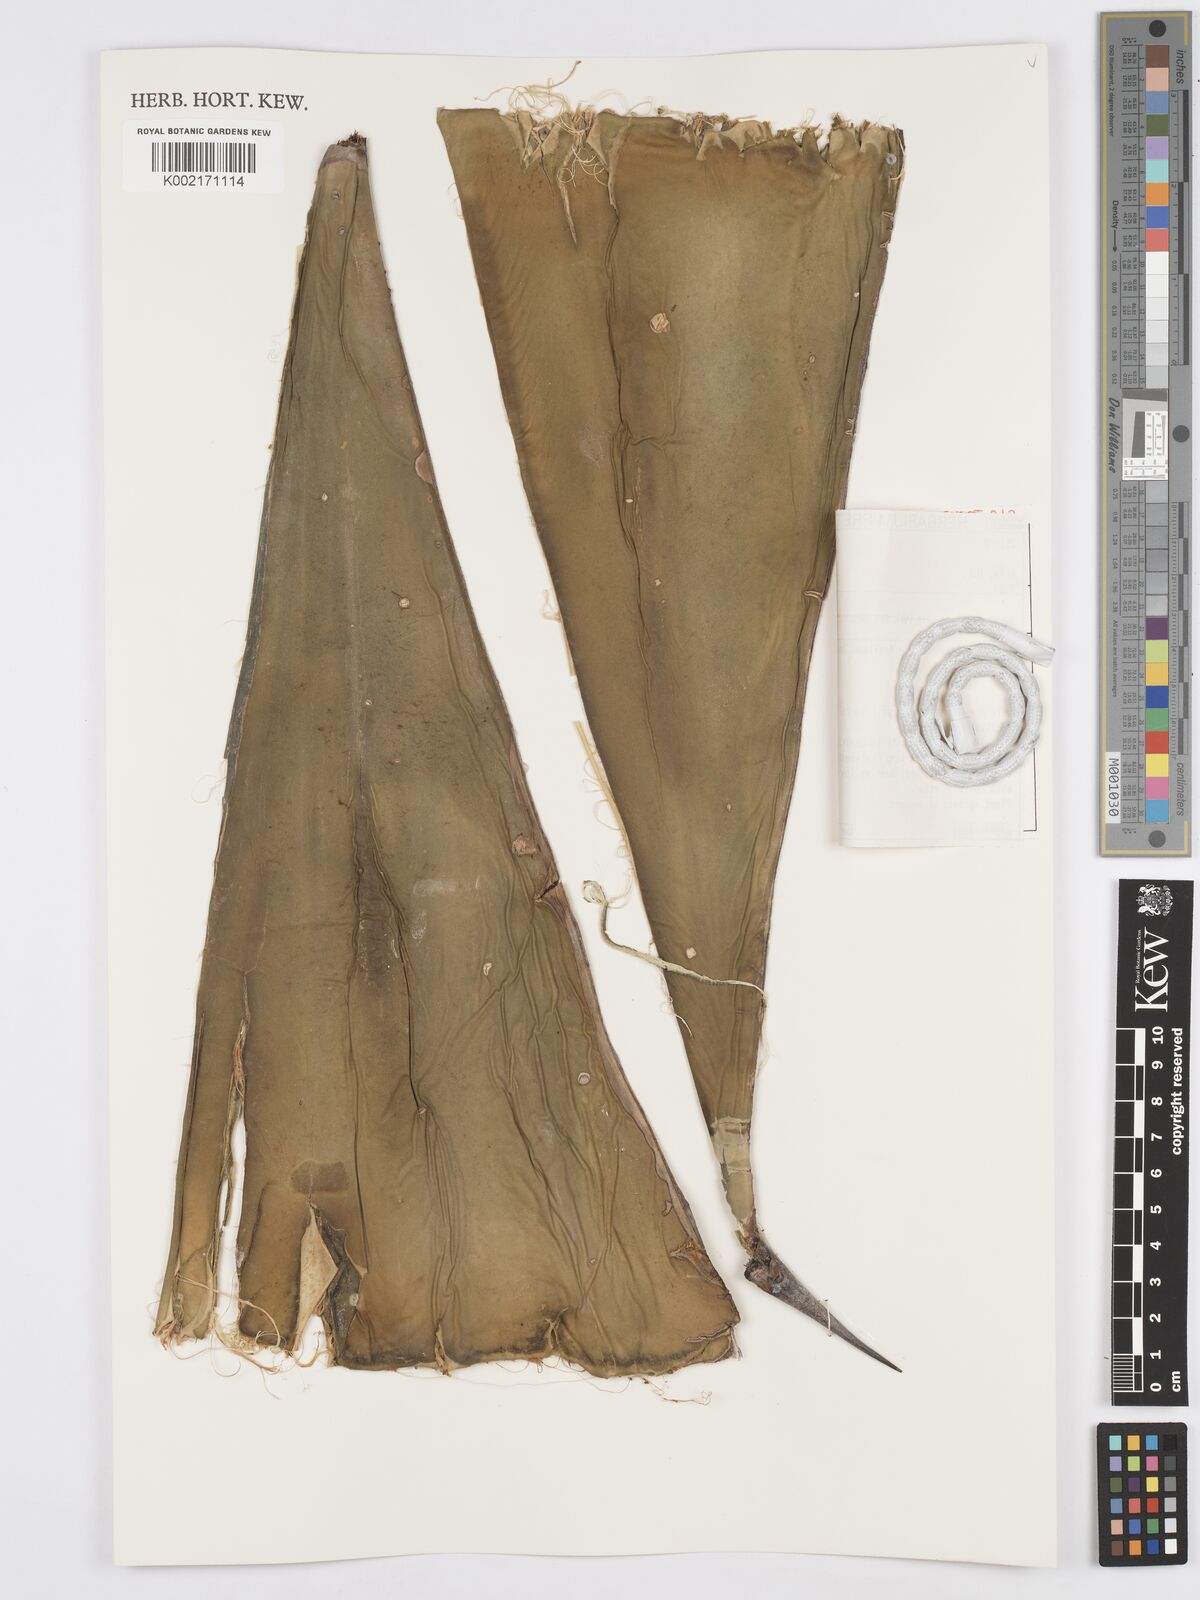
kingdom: Plantae
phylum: Tracheophyta
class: Liliopsida
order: Asparagales
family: Asparagaceae
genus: Agave
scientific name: Agave tecta
